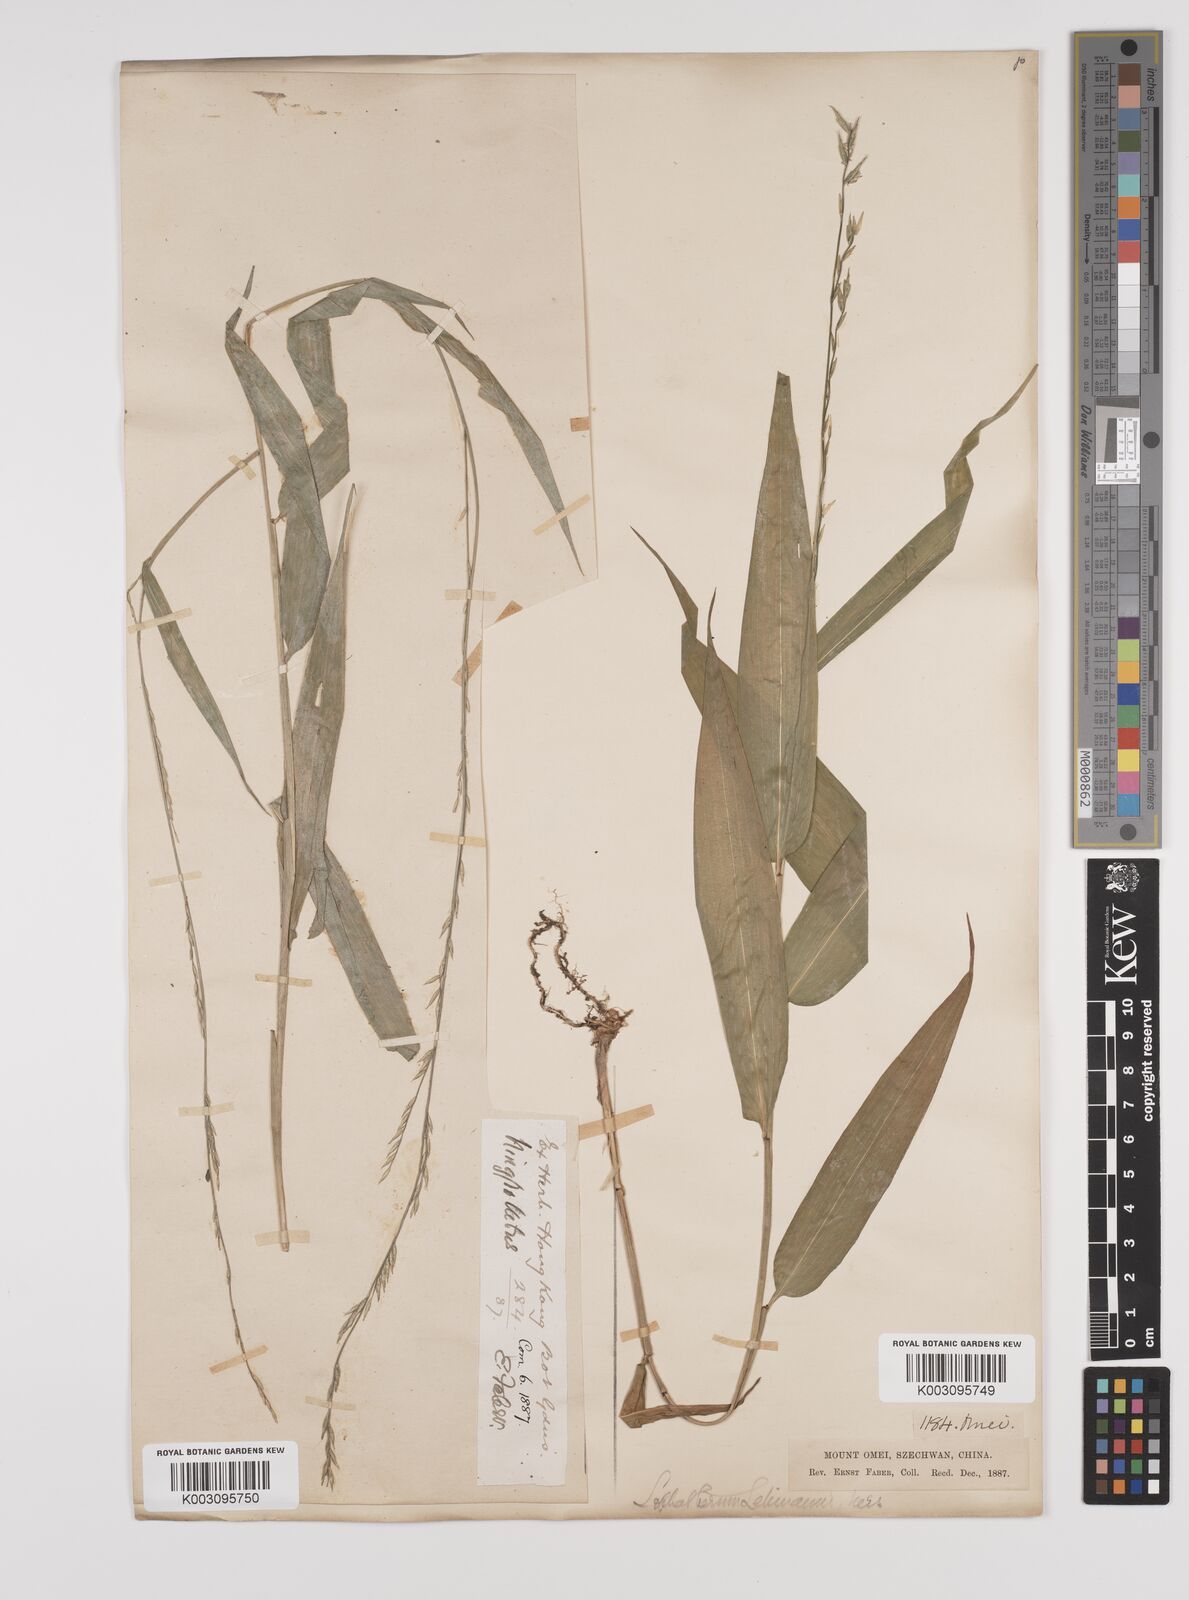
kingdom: Plantae
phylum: Tracheophyta
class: Liliopsida
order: Poales
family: Poaceae
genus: Lophatherum
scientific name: Lophatherum gracile
